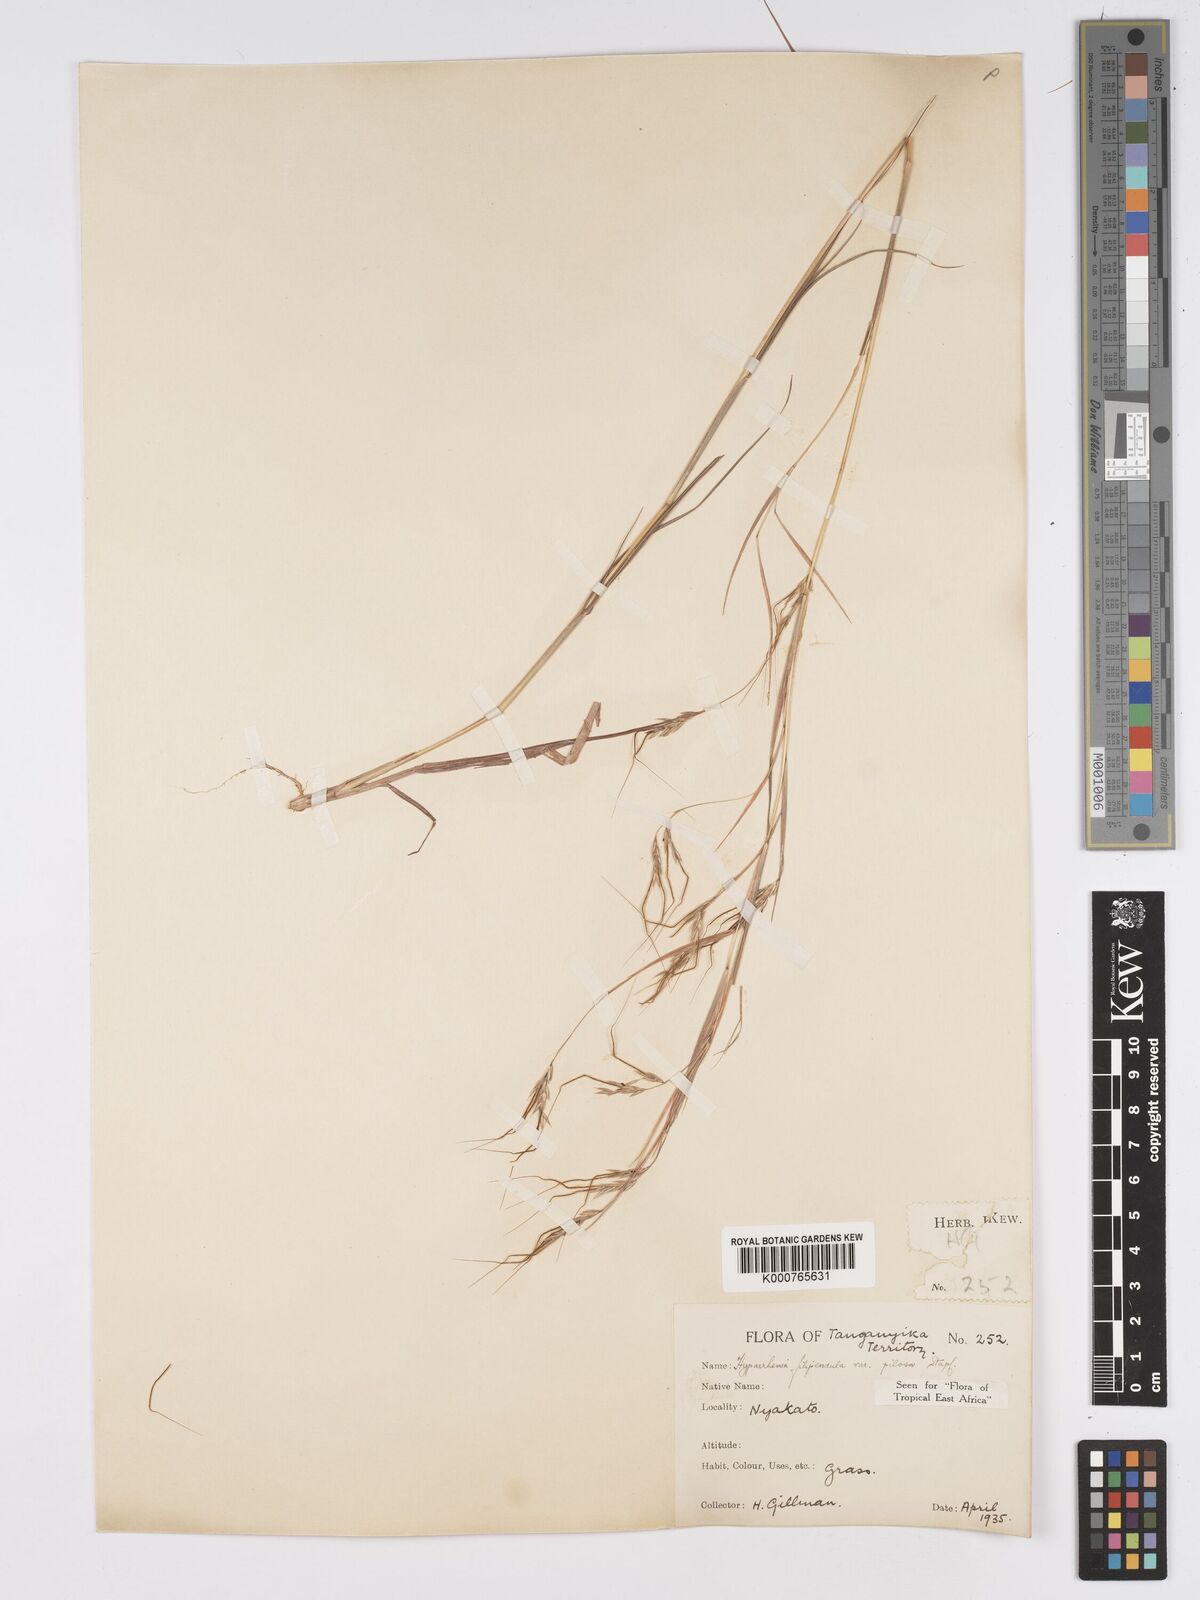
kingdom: Plantae
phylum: Tracheophyta
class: Liliopsida
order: Poales
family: Poaceae
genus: Hyparrhenia
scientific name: Hyparrhenia filipendula
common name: Tambookie grass
